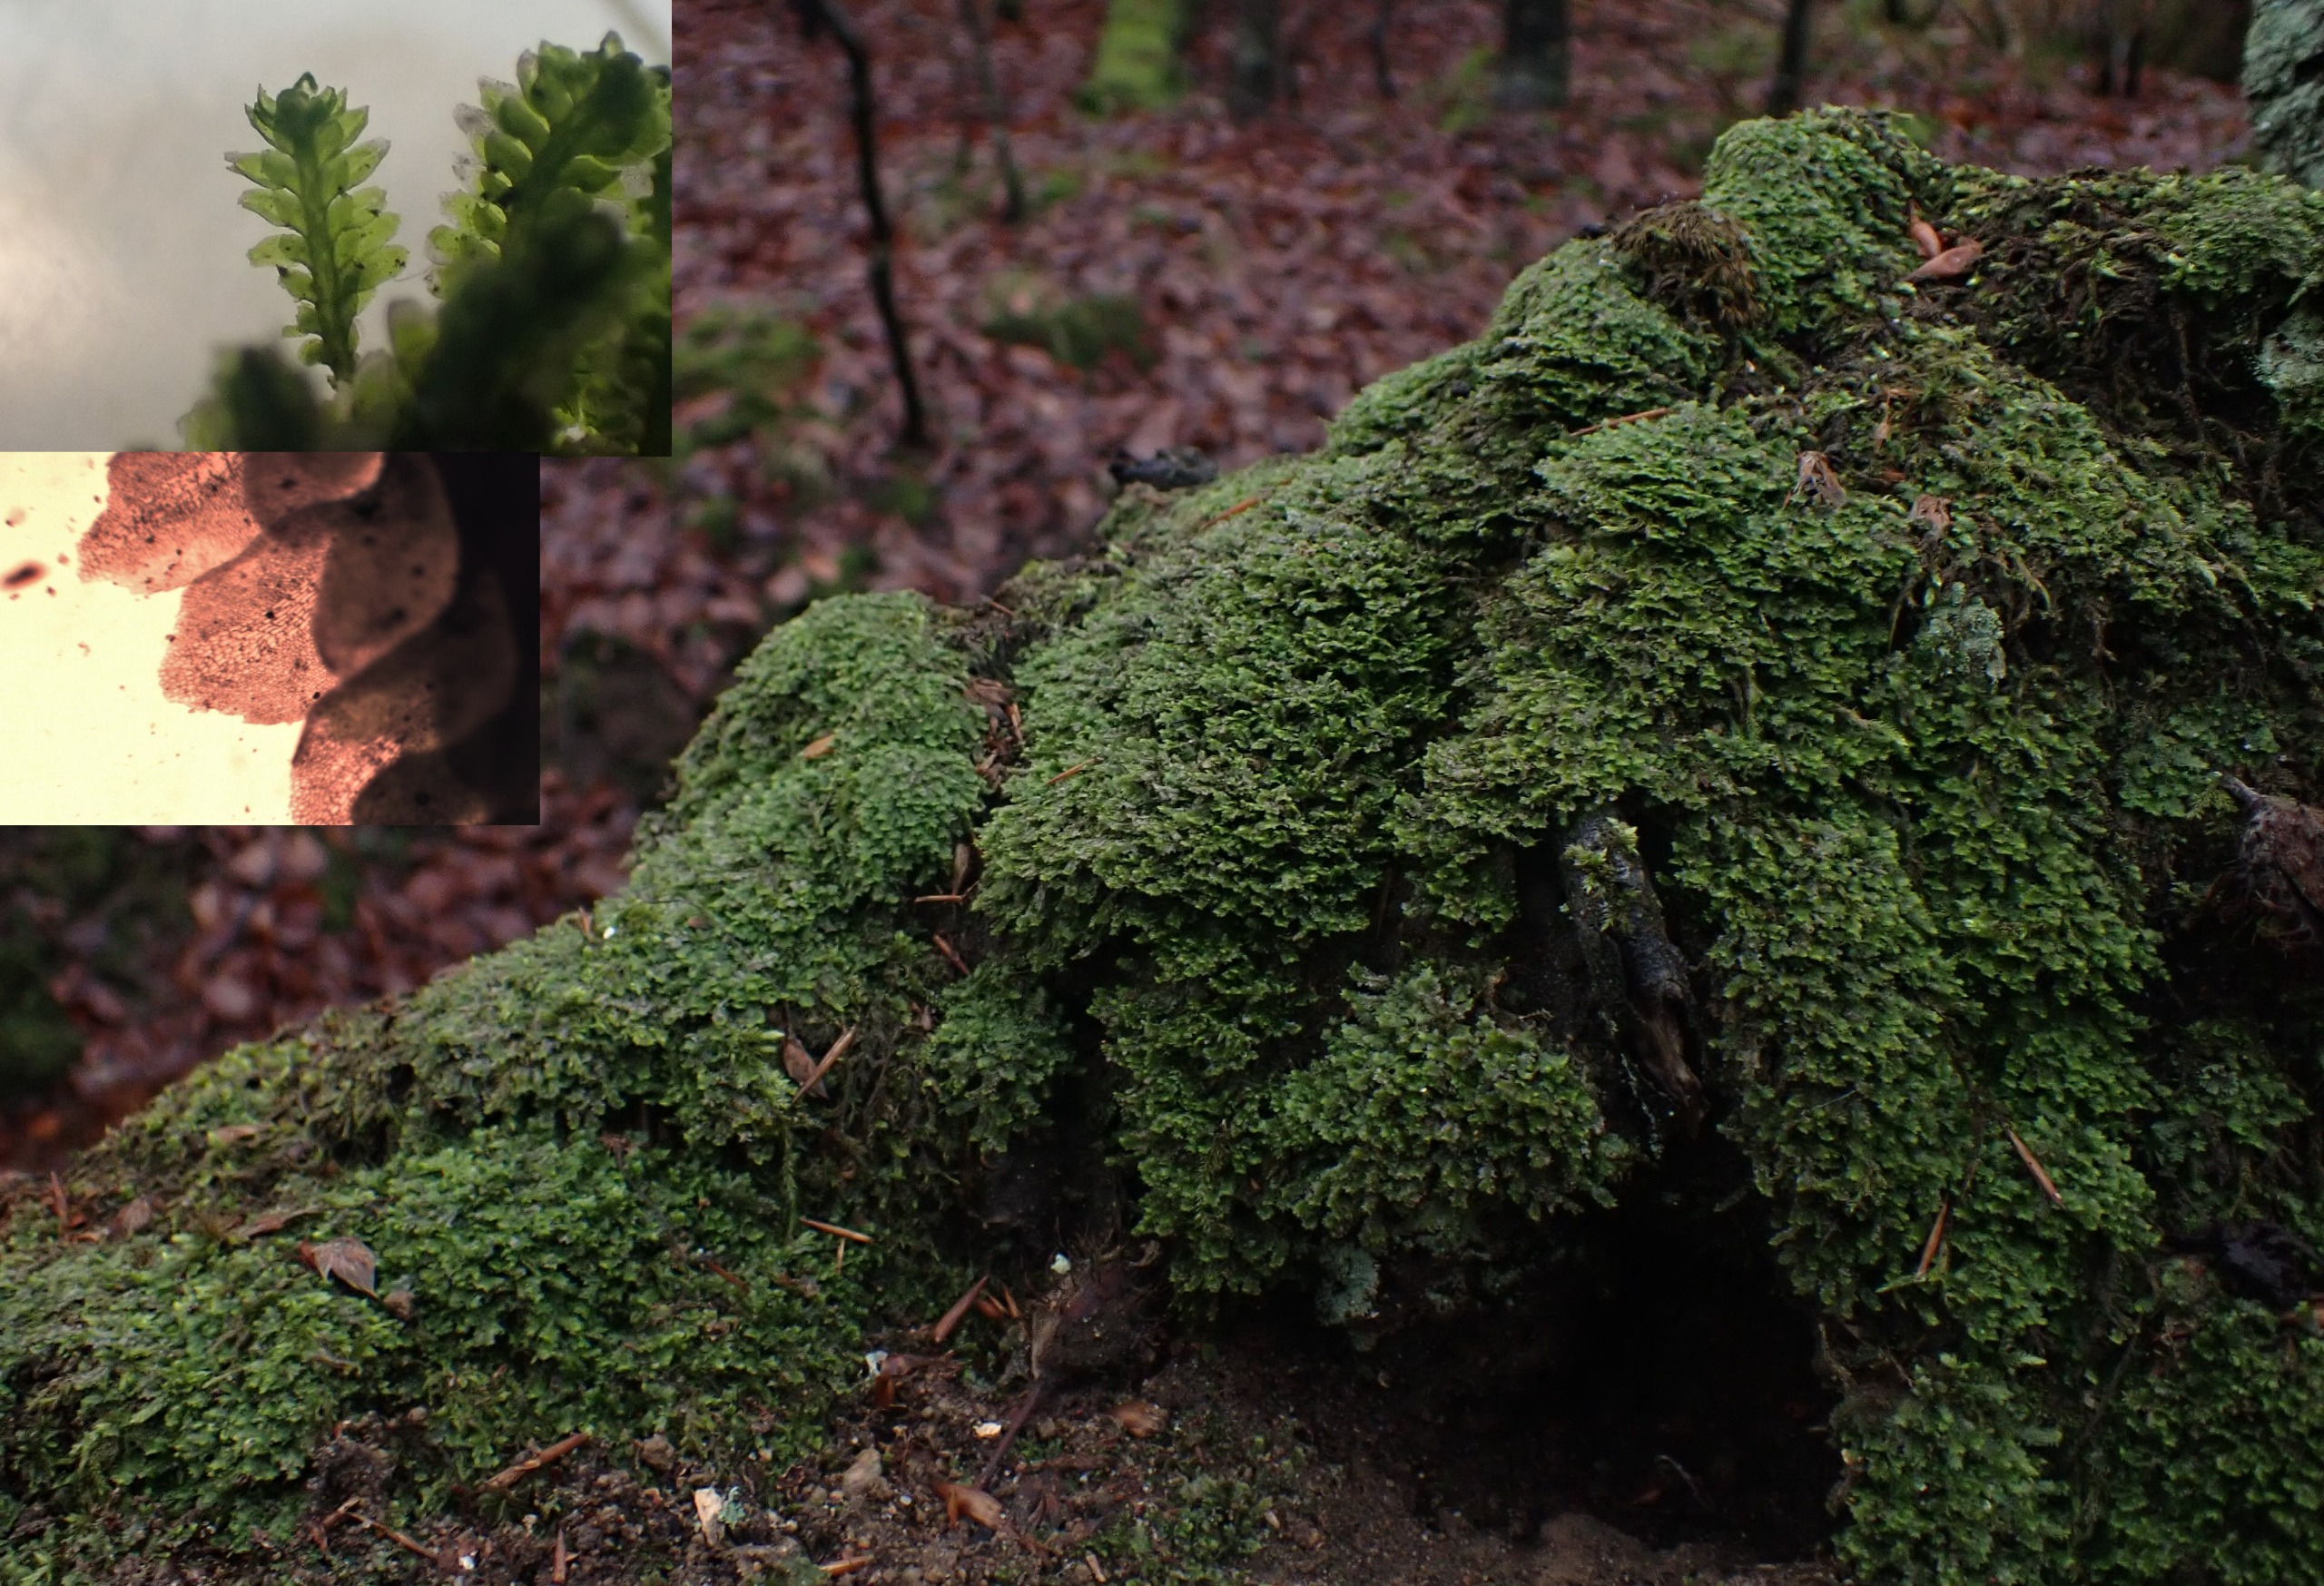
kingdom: Plantae
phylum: Marchantiophyta
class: Jungermanniopsida
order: Jungermanniales
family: Scapaniaceae
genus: Diplophyllum
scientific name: Diplophyllum albicans
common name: Stribet dobbeltblad
